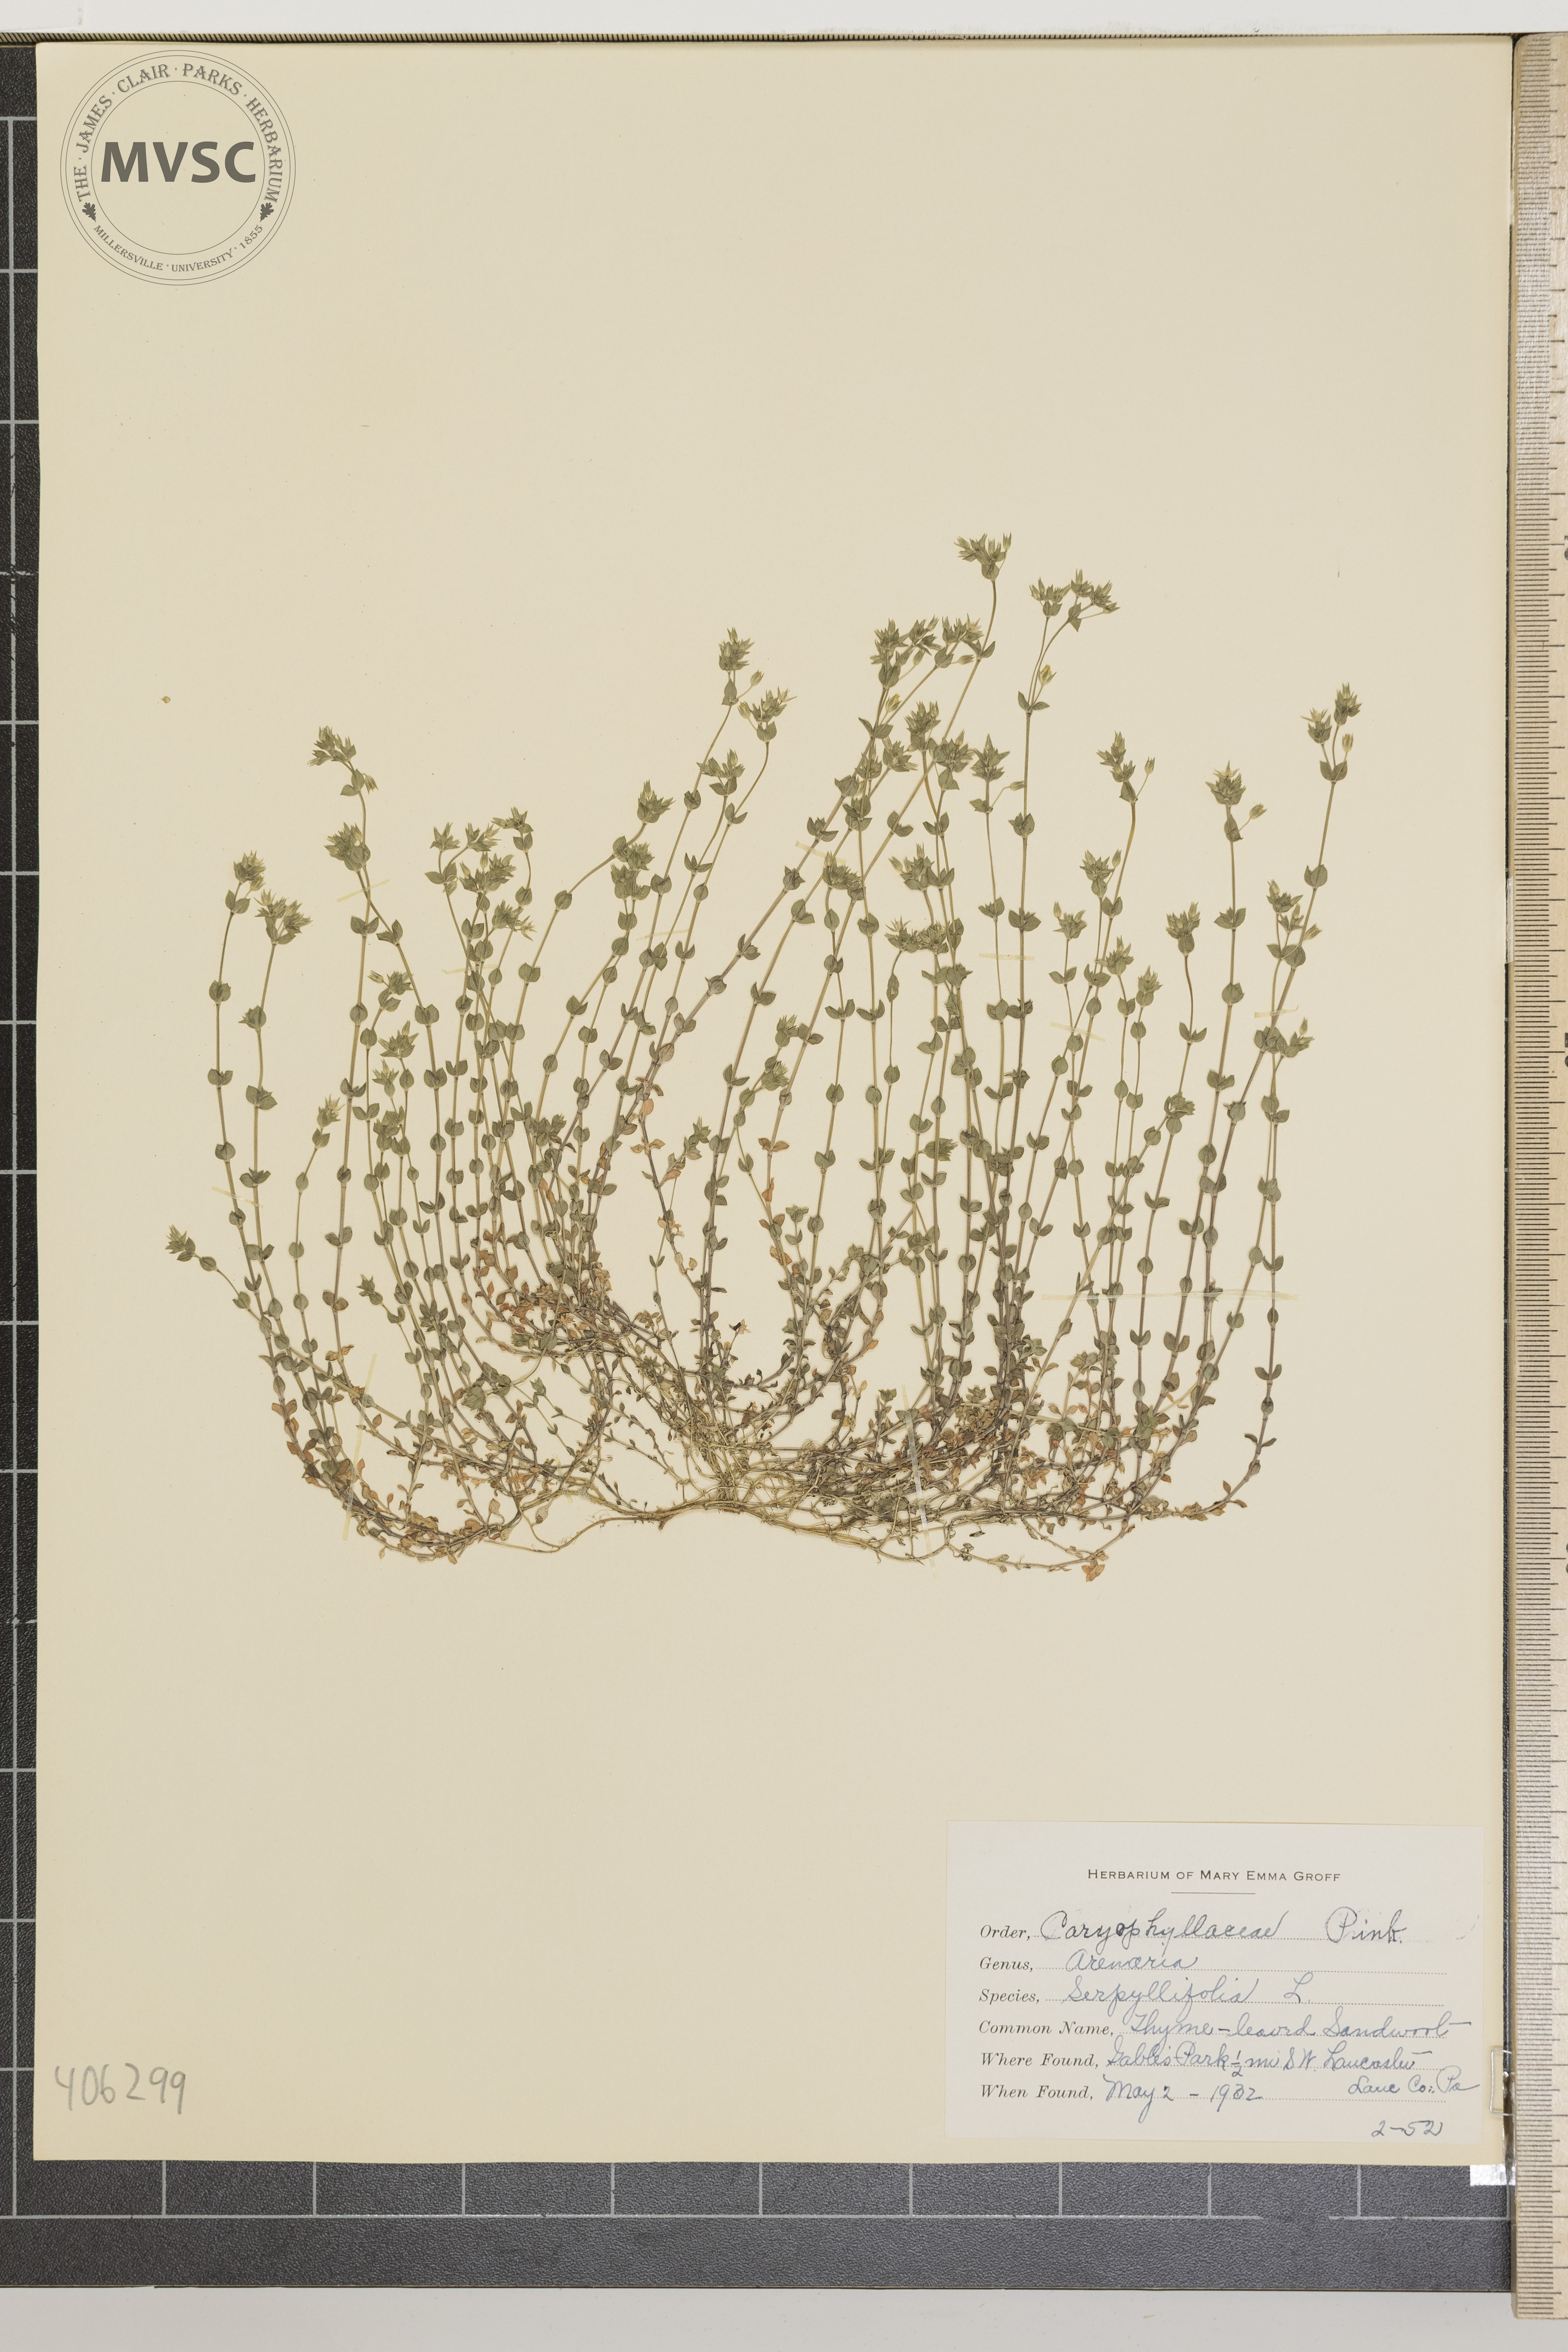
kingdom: Plantae
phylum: Tracheophyta
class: Magnoliopsida
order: Caryophyllales
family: Caryophyllaceae
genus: Arenaria
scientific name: Arenaria serpyllifolia
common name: Thyme-leaved Sandwort
